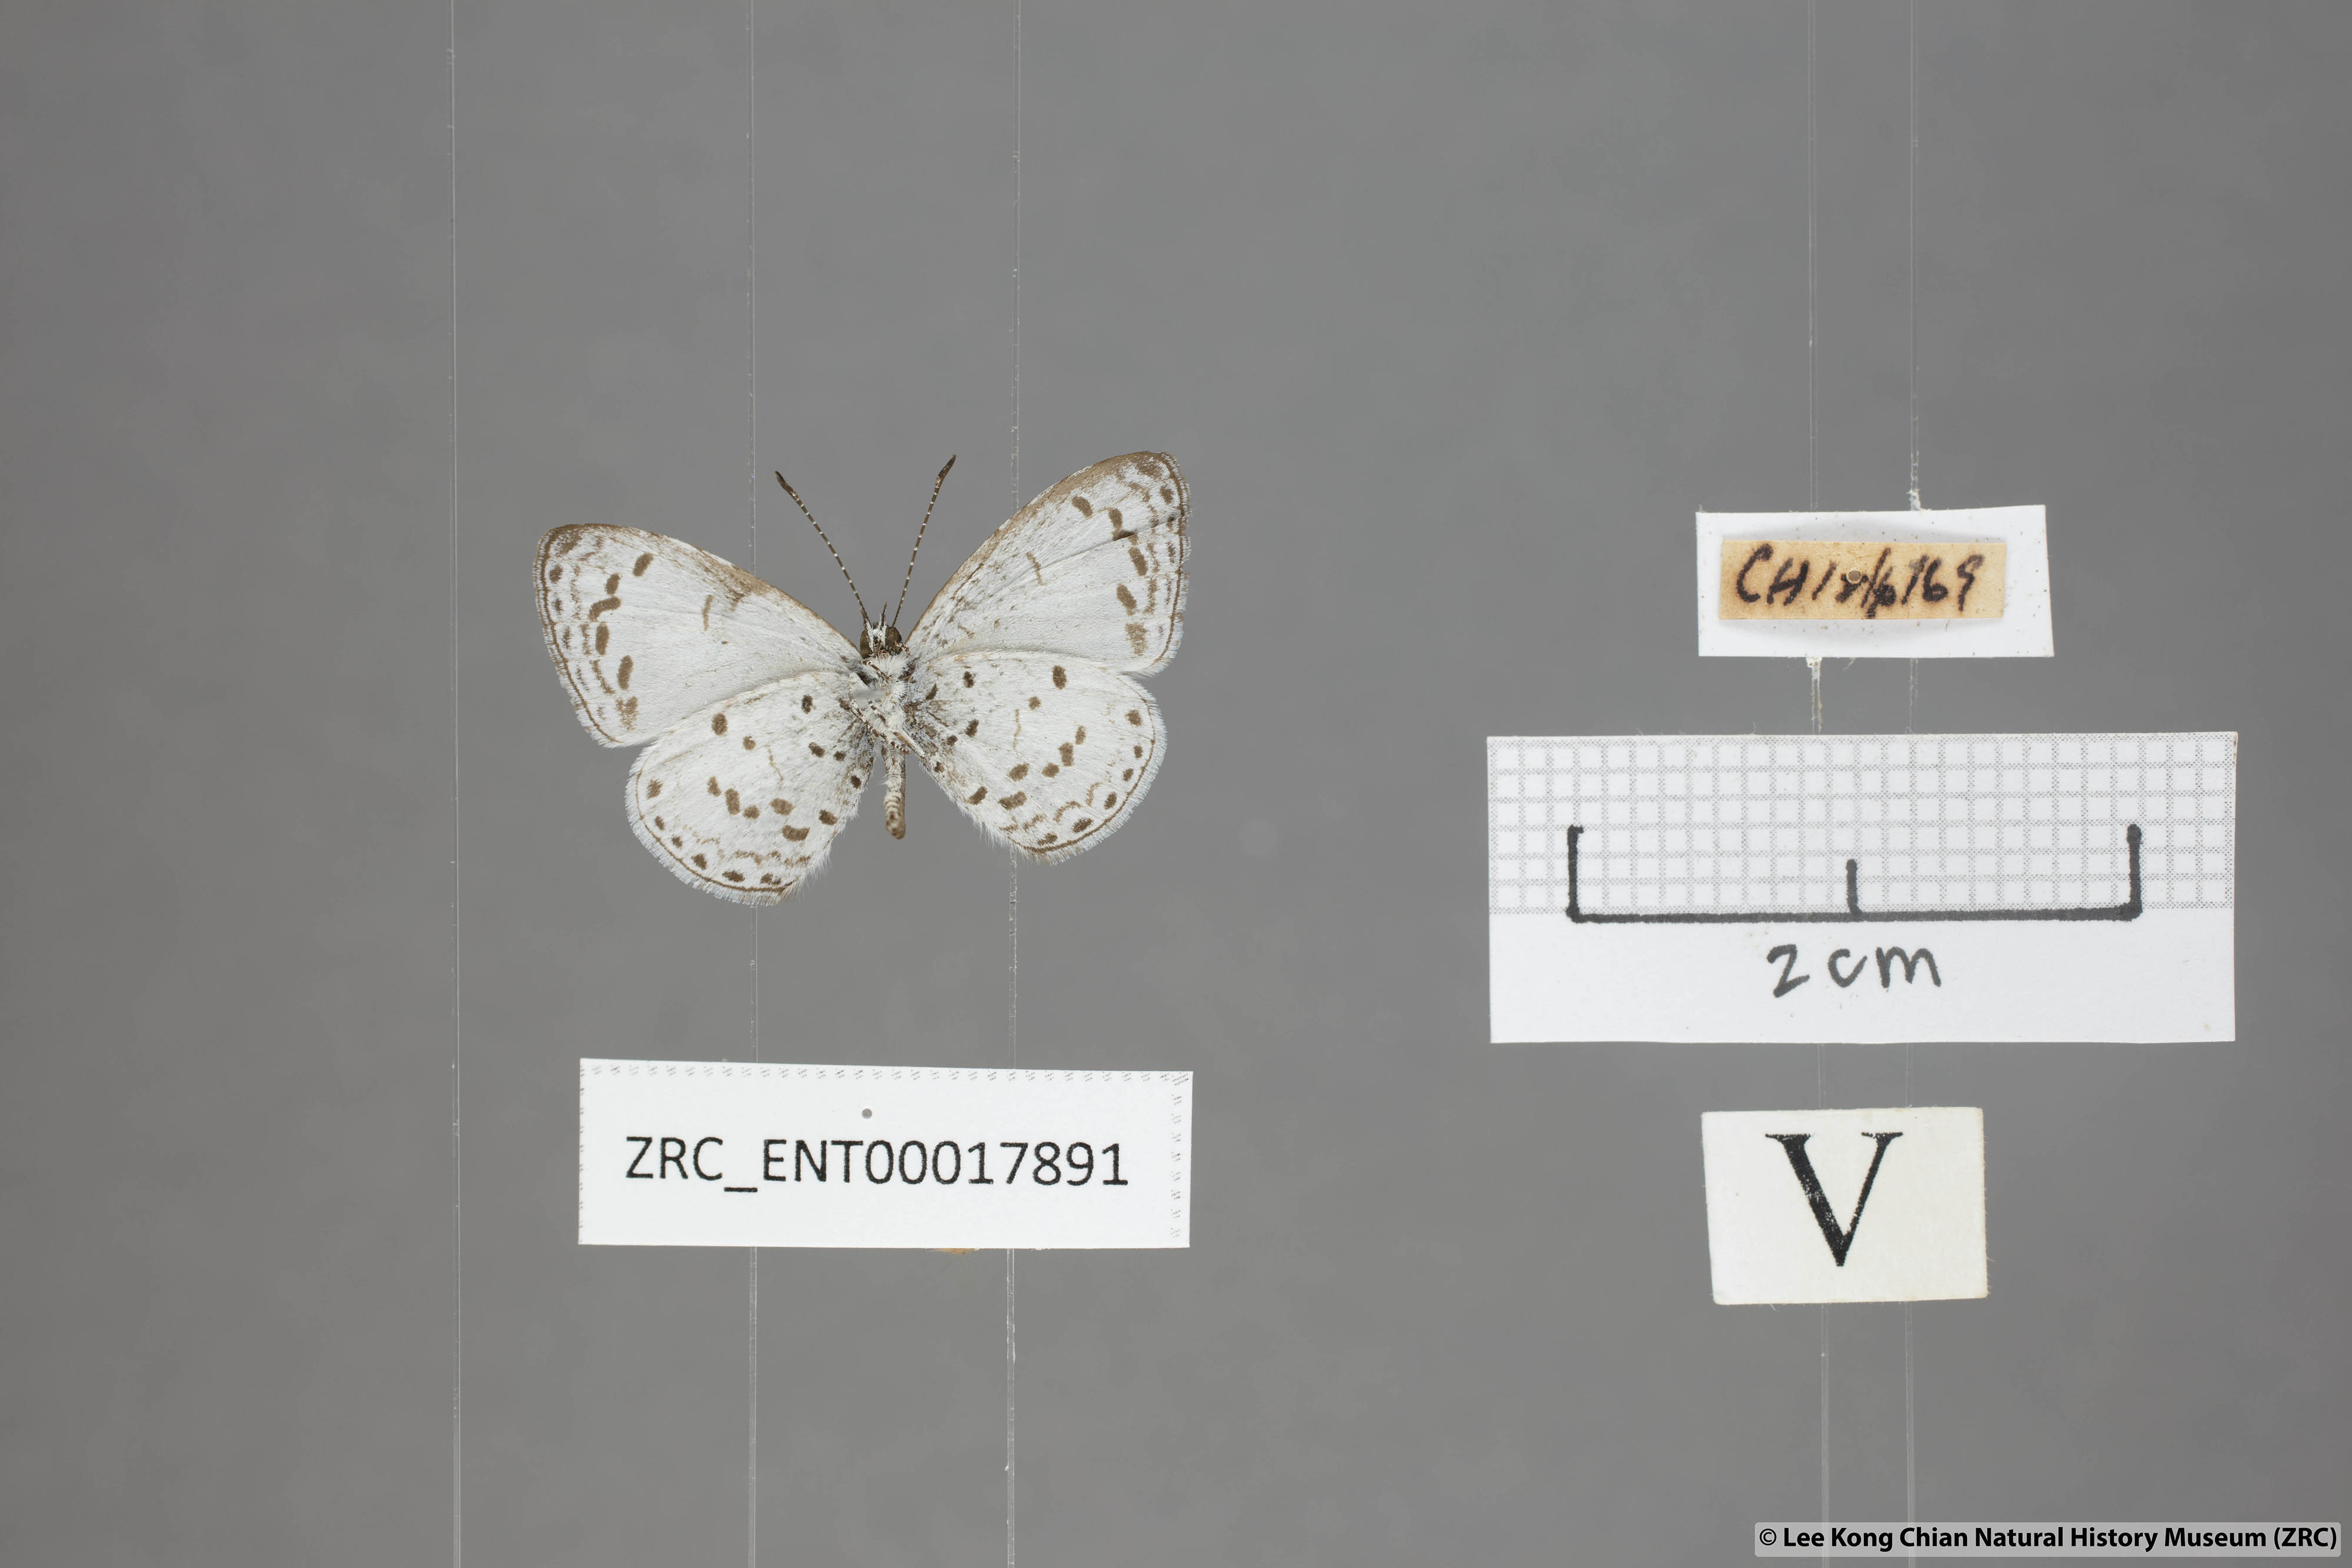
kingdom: Animalia
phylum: Arthropoda
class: Insecta
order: Lepidoptera
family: Lycaenidae
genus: Oreolyce
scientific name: Oreolyce
